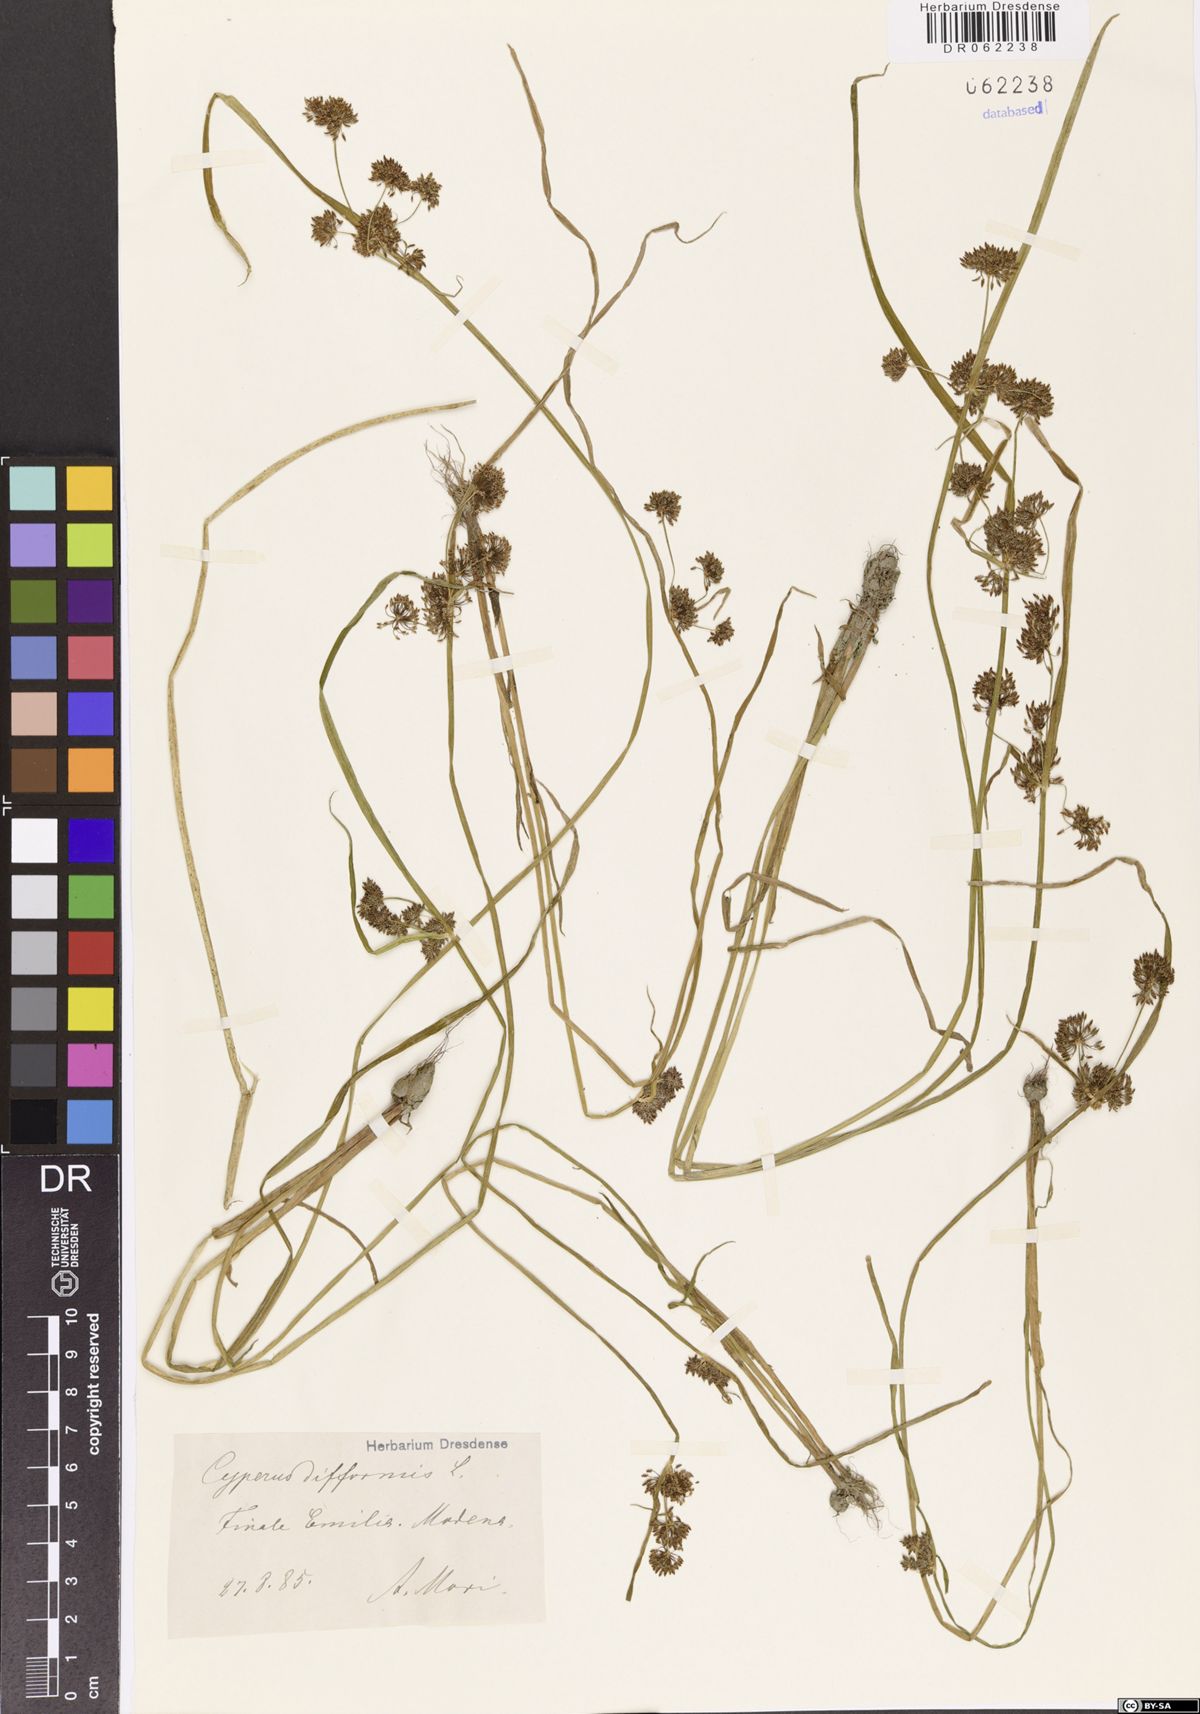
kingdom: Plantae
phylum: Tracheophyta
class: Liliopsida
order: Poales
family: Cyperaceae
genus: Cyperus
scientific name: Cyperus difformis
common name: Variable flatsedge
